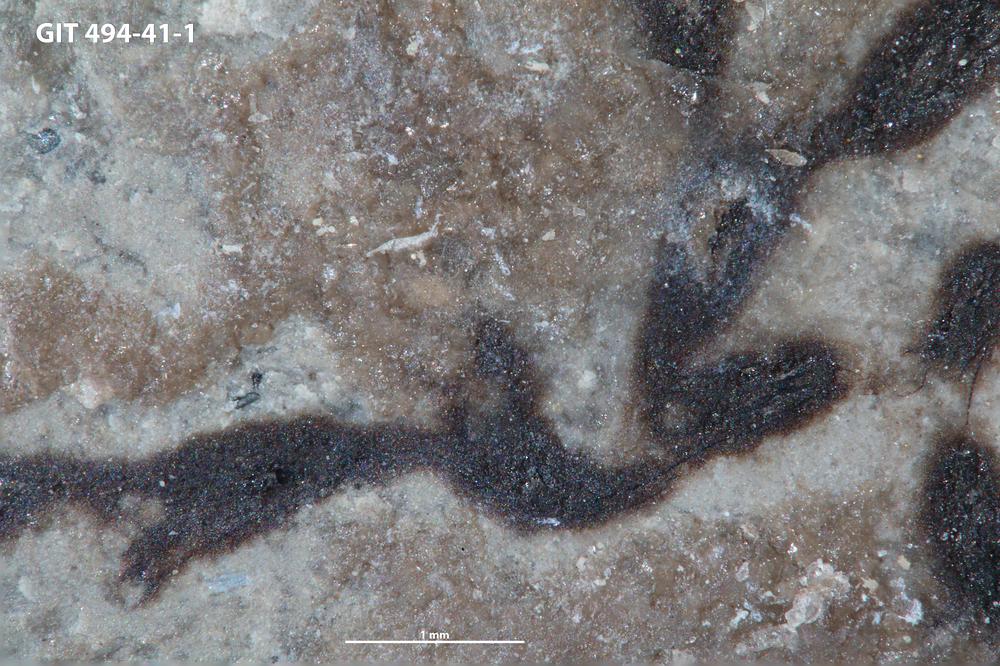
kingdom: Animalia
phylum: Hemichordata
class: Pterobranchia
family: Hormograptidae
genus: Hormograptus
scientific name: Hormograptus
